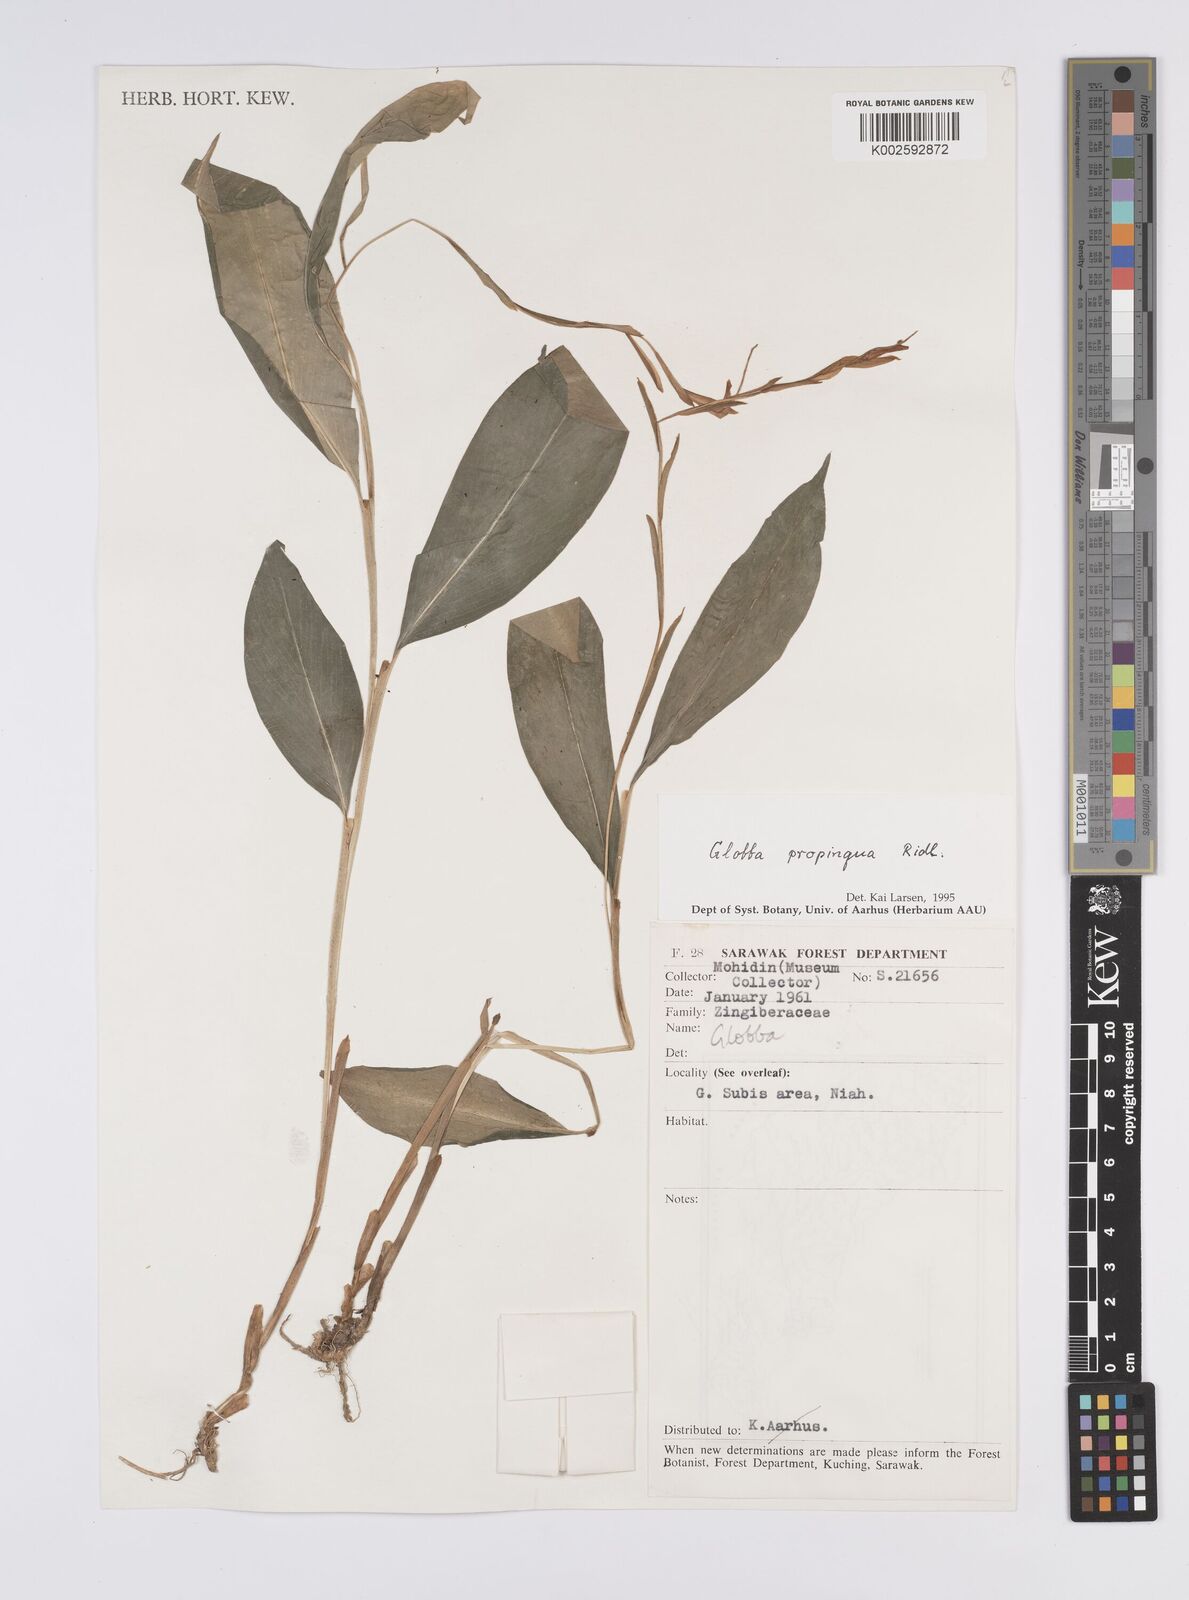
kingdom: Plantae
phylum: Tracheophyta
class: Liliopsida
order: Zingiberales
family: Zingiberaceae
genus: Globba
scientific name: Globba propinqua
